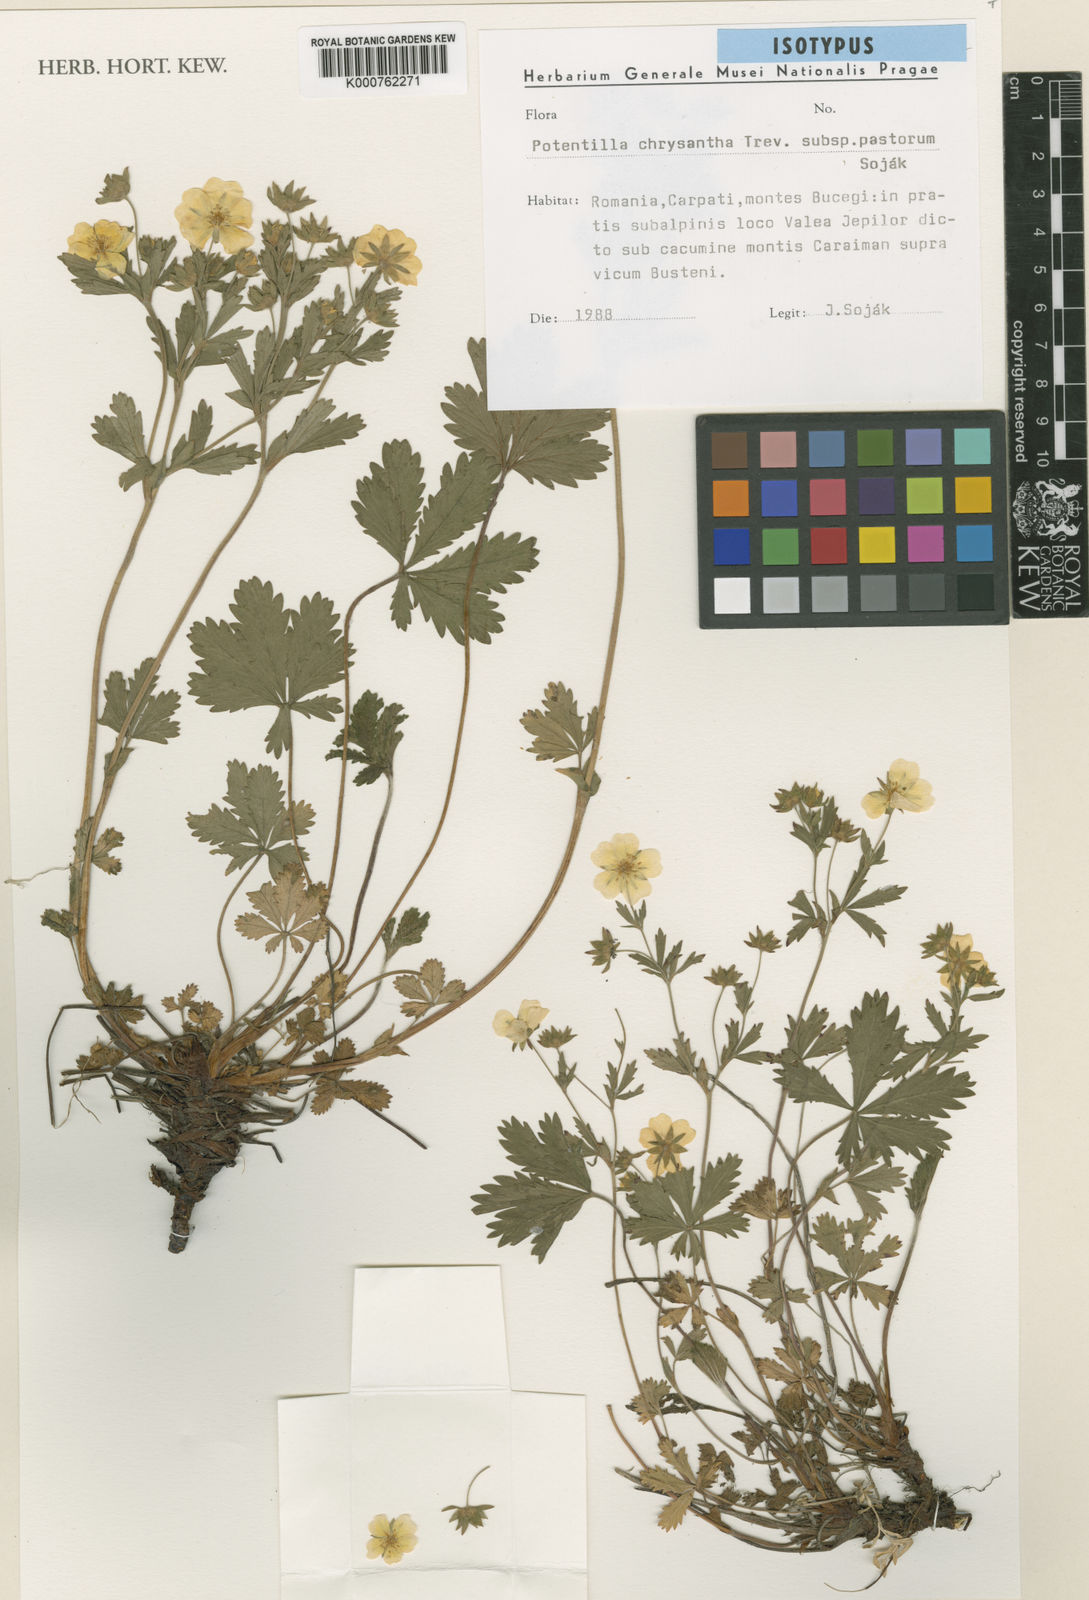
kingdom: Plantae
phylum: Tracheophyta
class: Magnoliopsida
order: Rosales
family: Rosaceae
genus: Potentilla
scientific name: Potentilla chrysantha
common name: Thuringian cinquefoil
